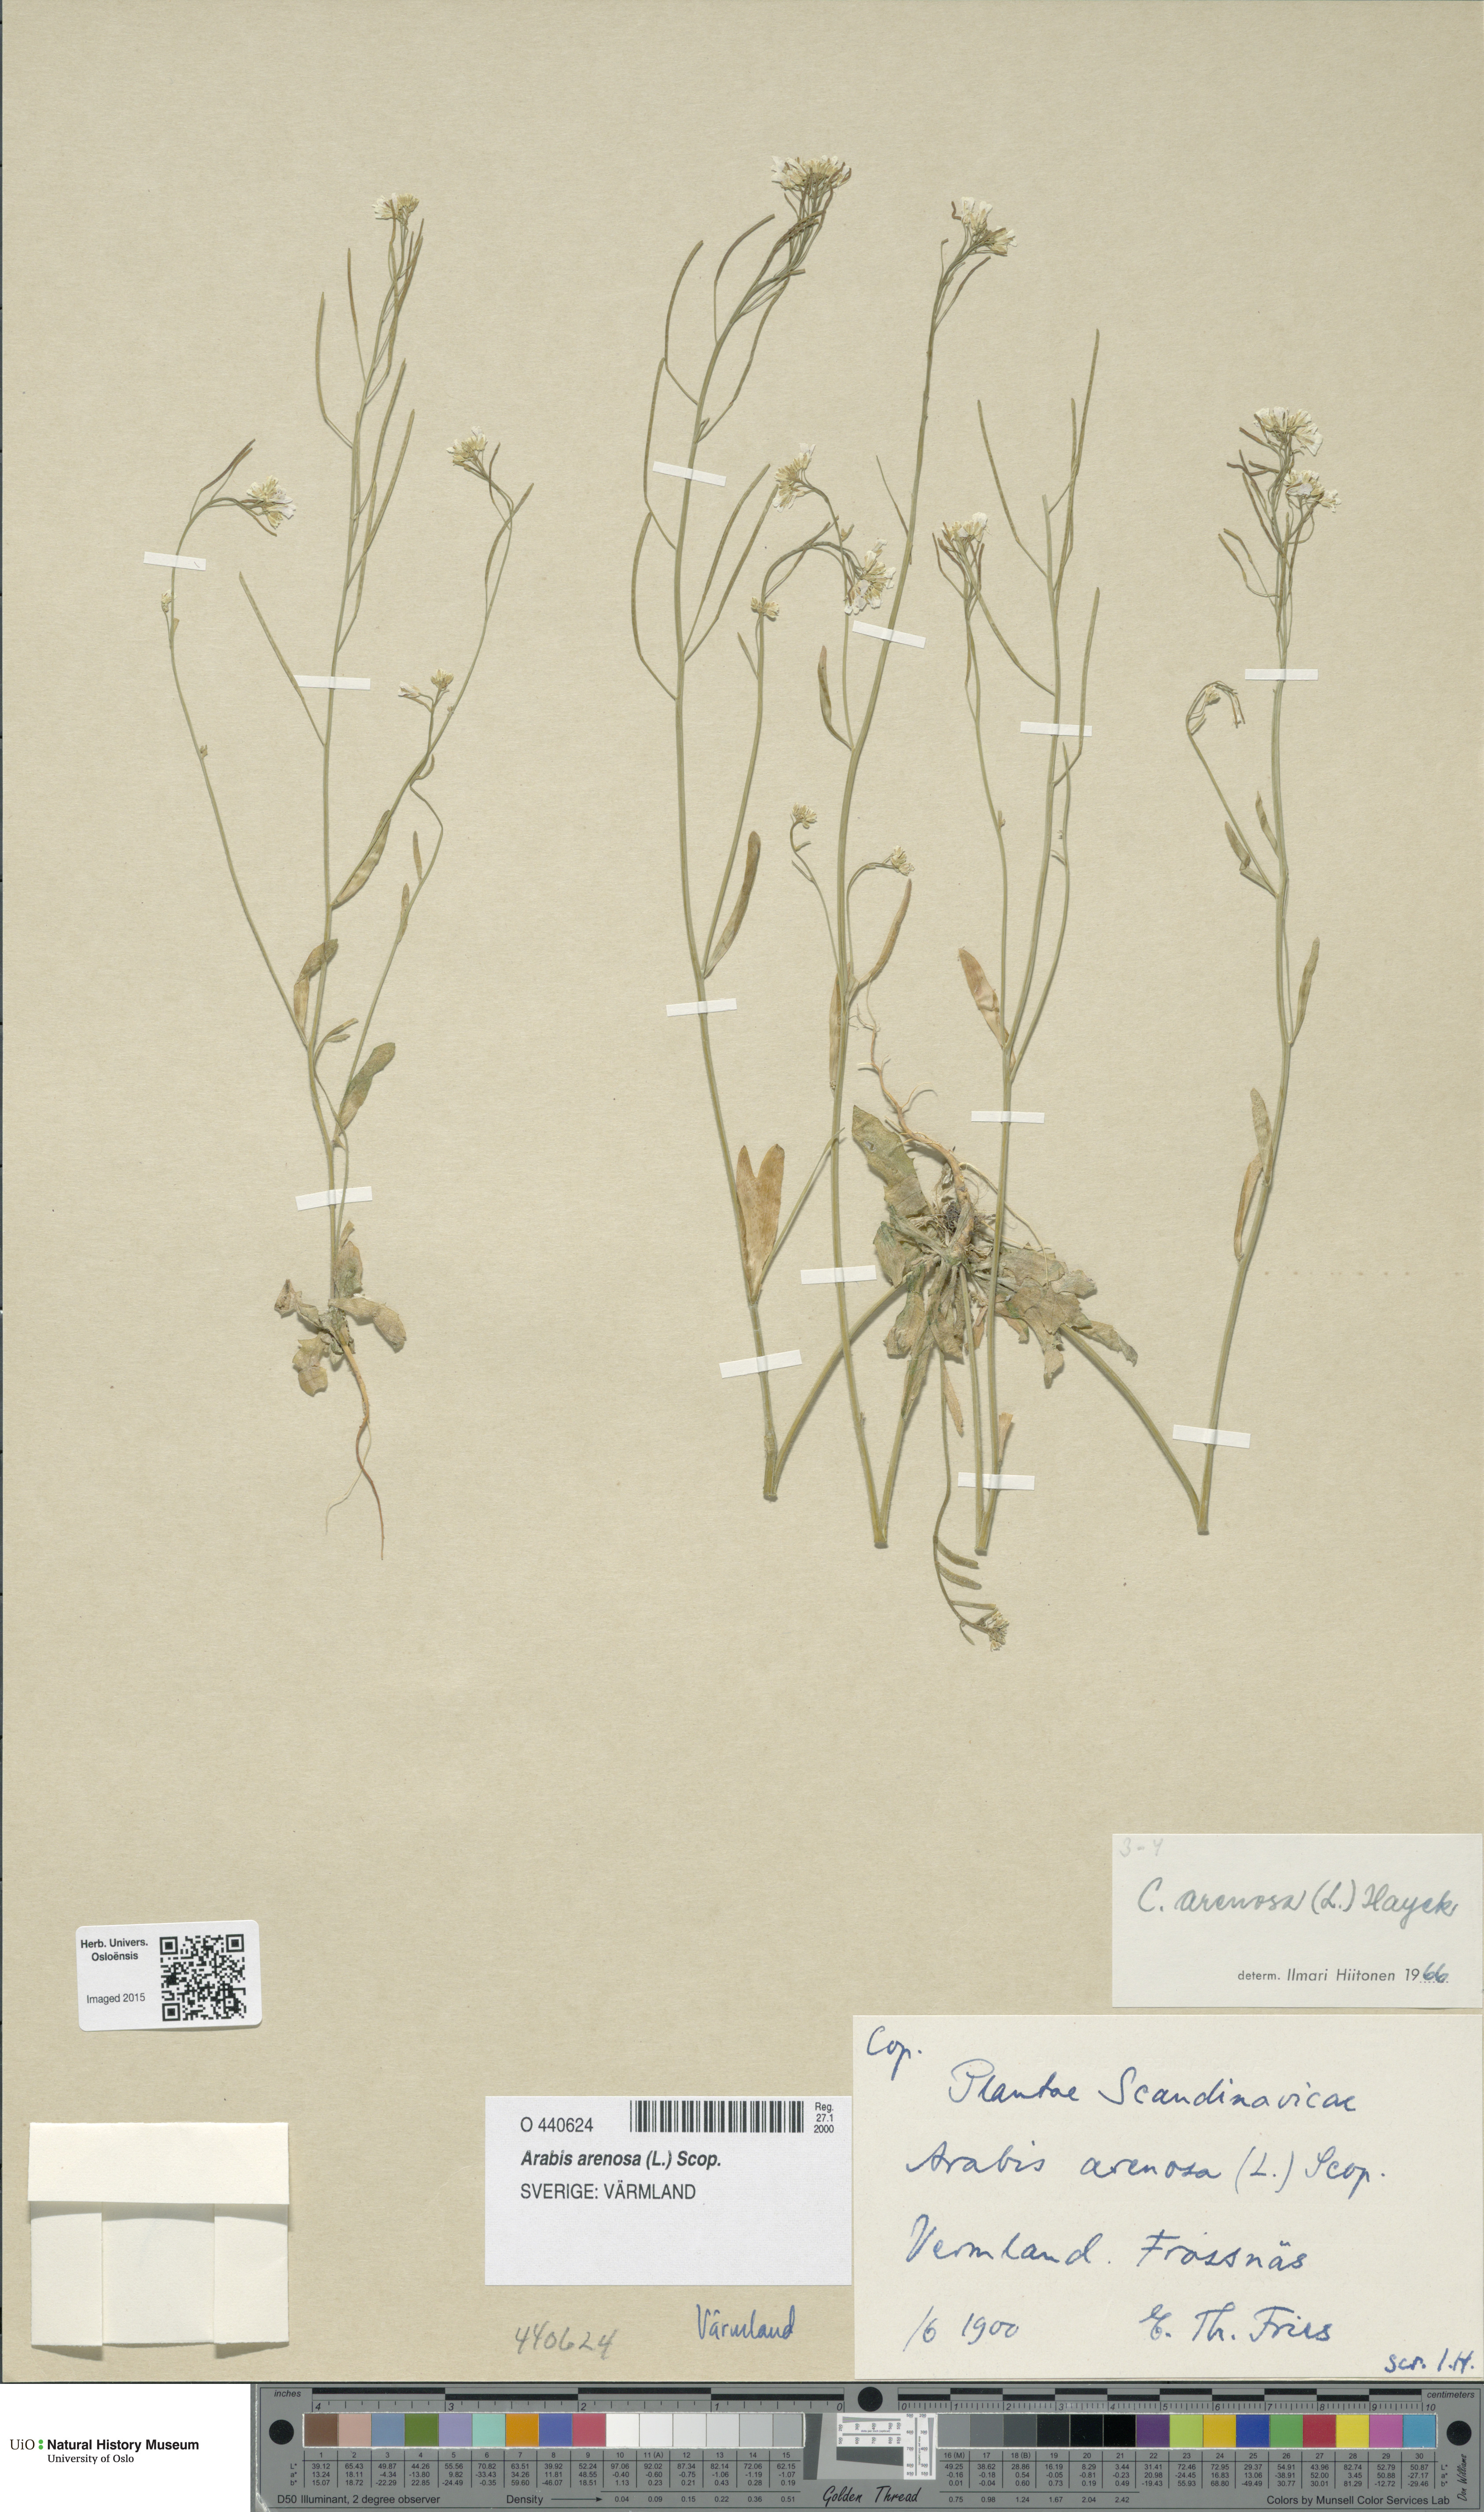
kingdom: Plantae
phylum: Tracheophyta
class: Magnoliopsida
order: Brassicales
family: Brassicaceae
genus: Arabidopsis
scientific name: Arabidopsis arenosa
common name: Sand rock-cress
